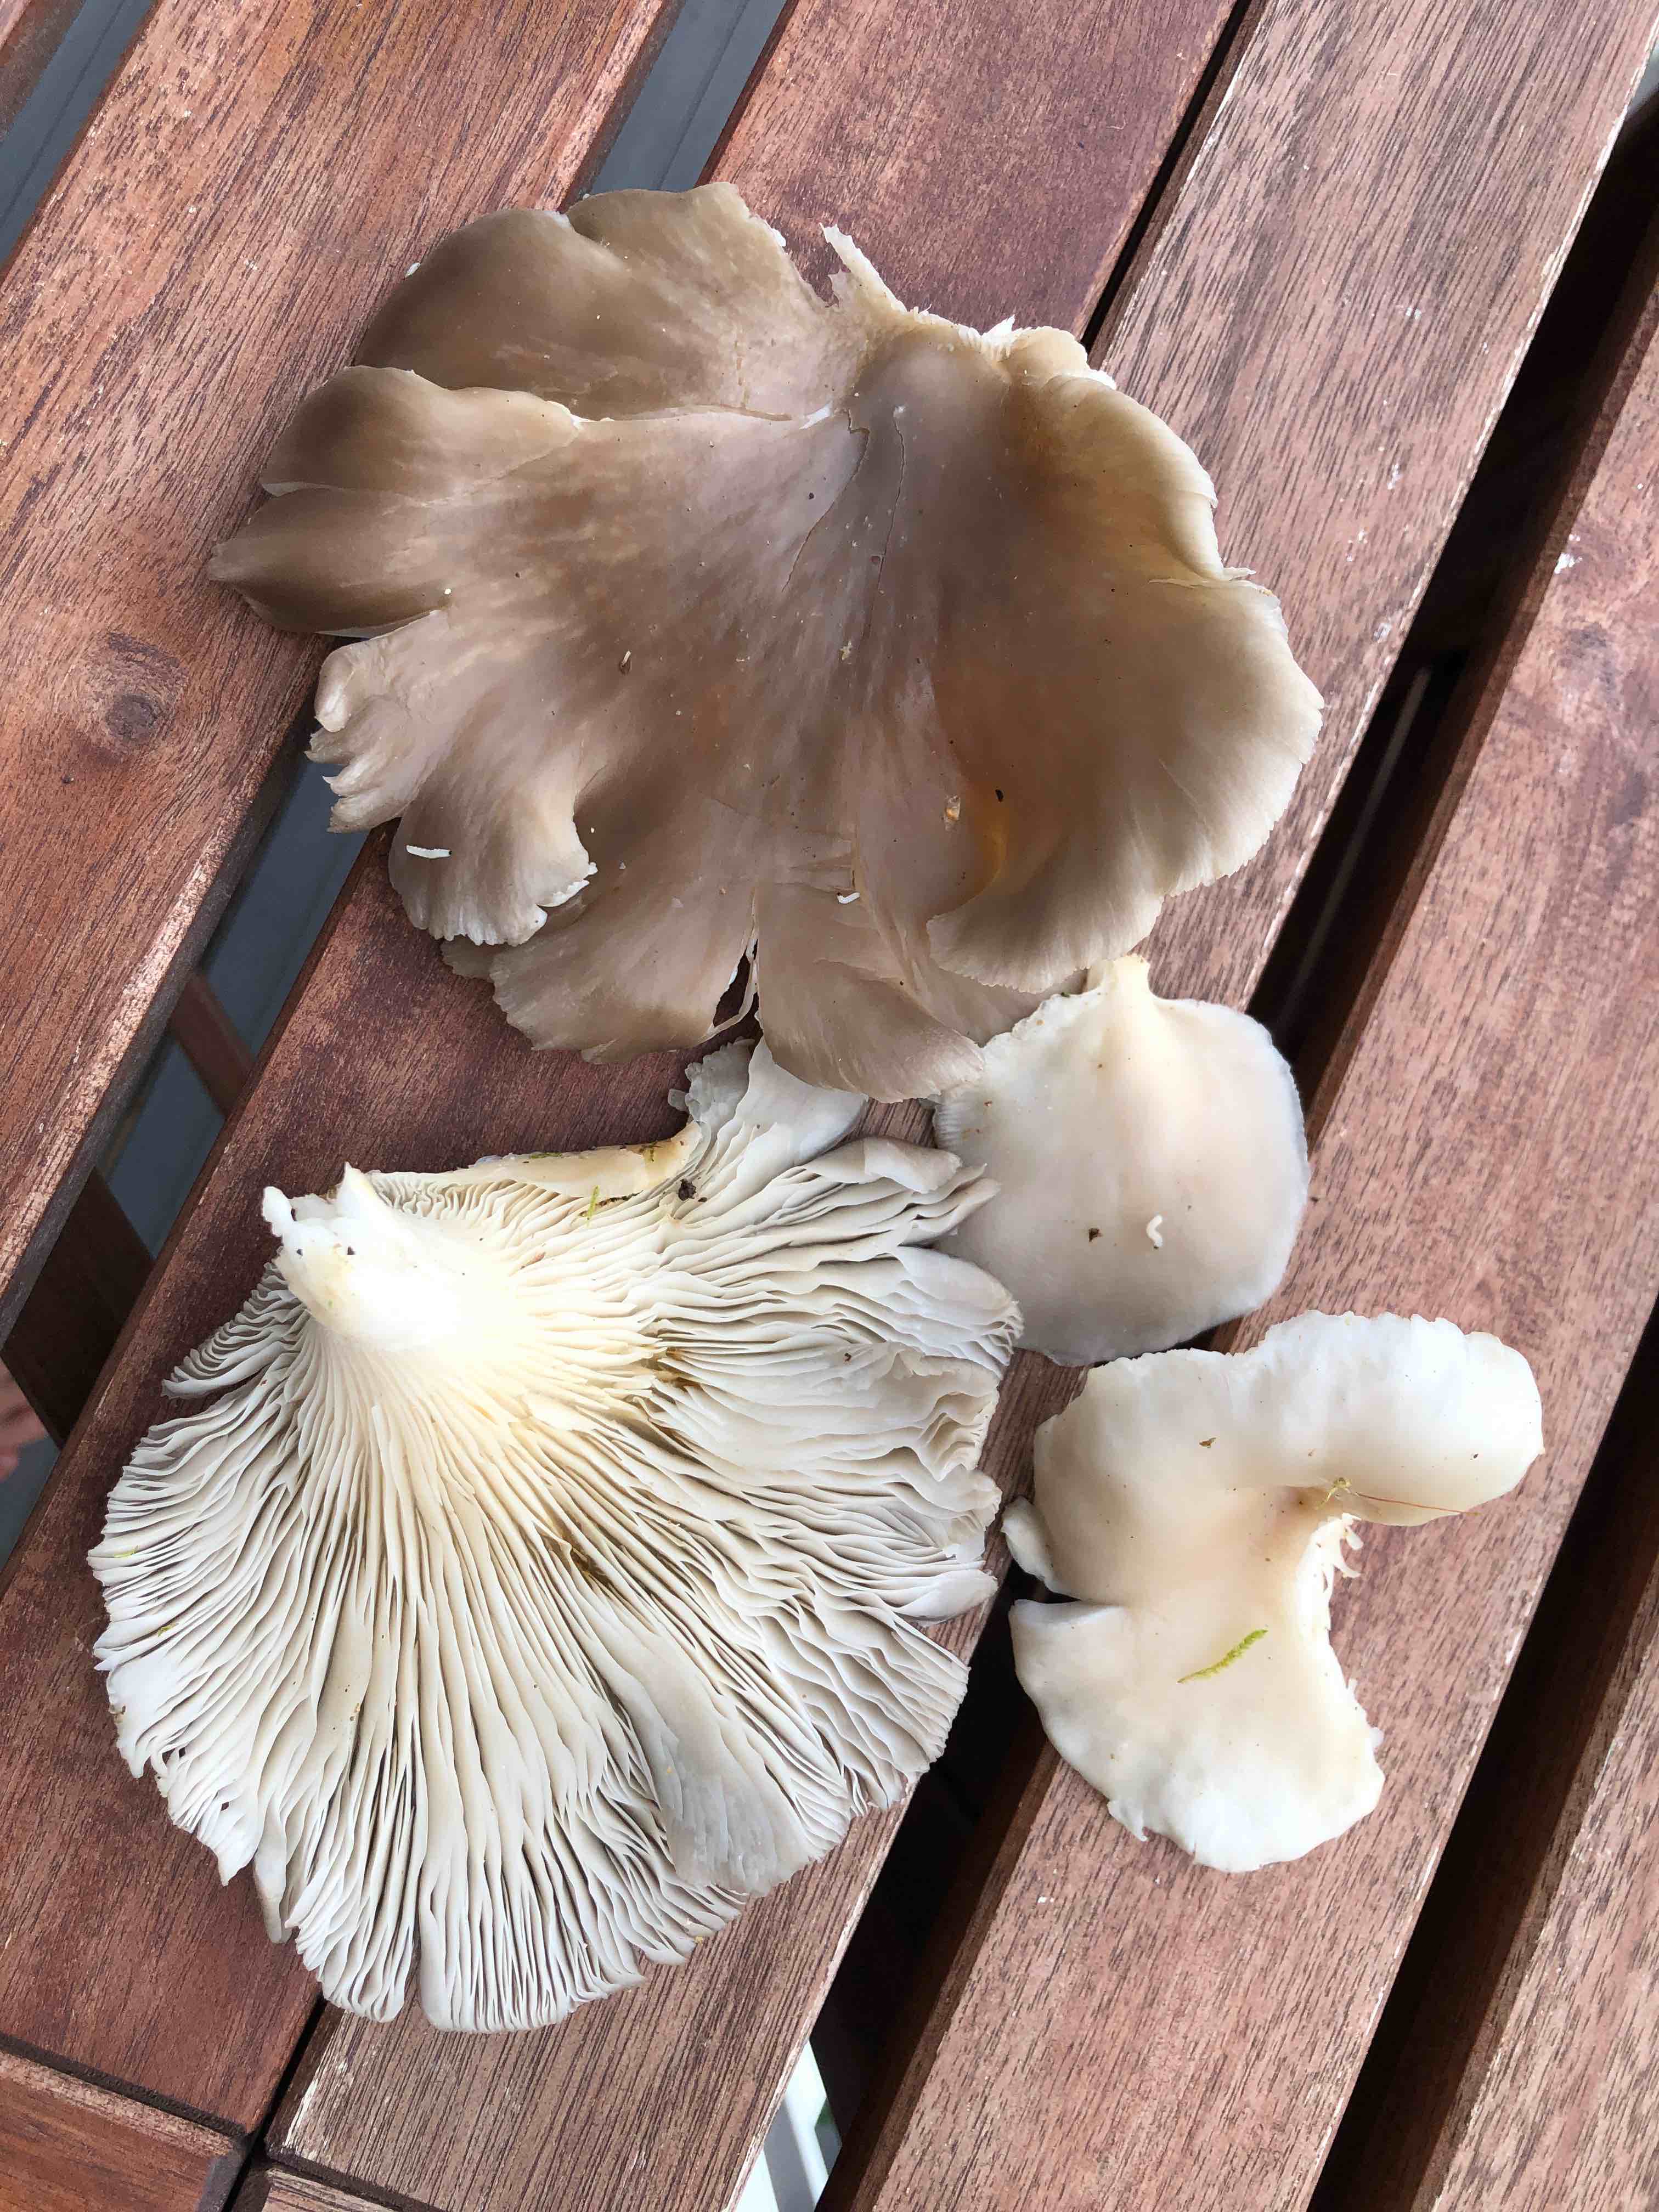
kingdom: Fungi
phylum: Basidiomycota
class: Agaricomycetes
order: Agaricales
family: Pleurotaceae
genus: Pleurotus
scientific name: Pleurotus pulmonarius
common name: sommer-østershat
